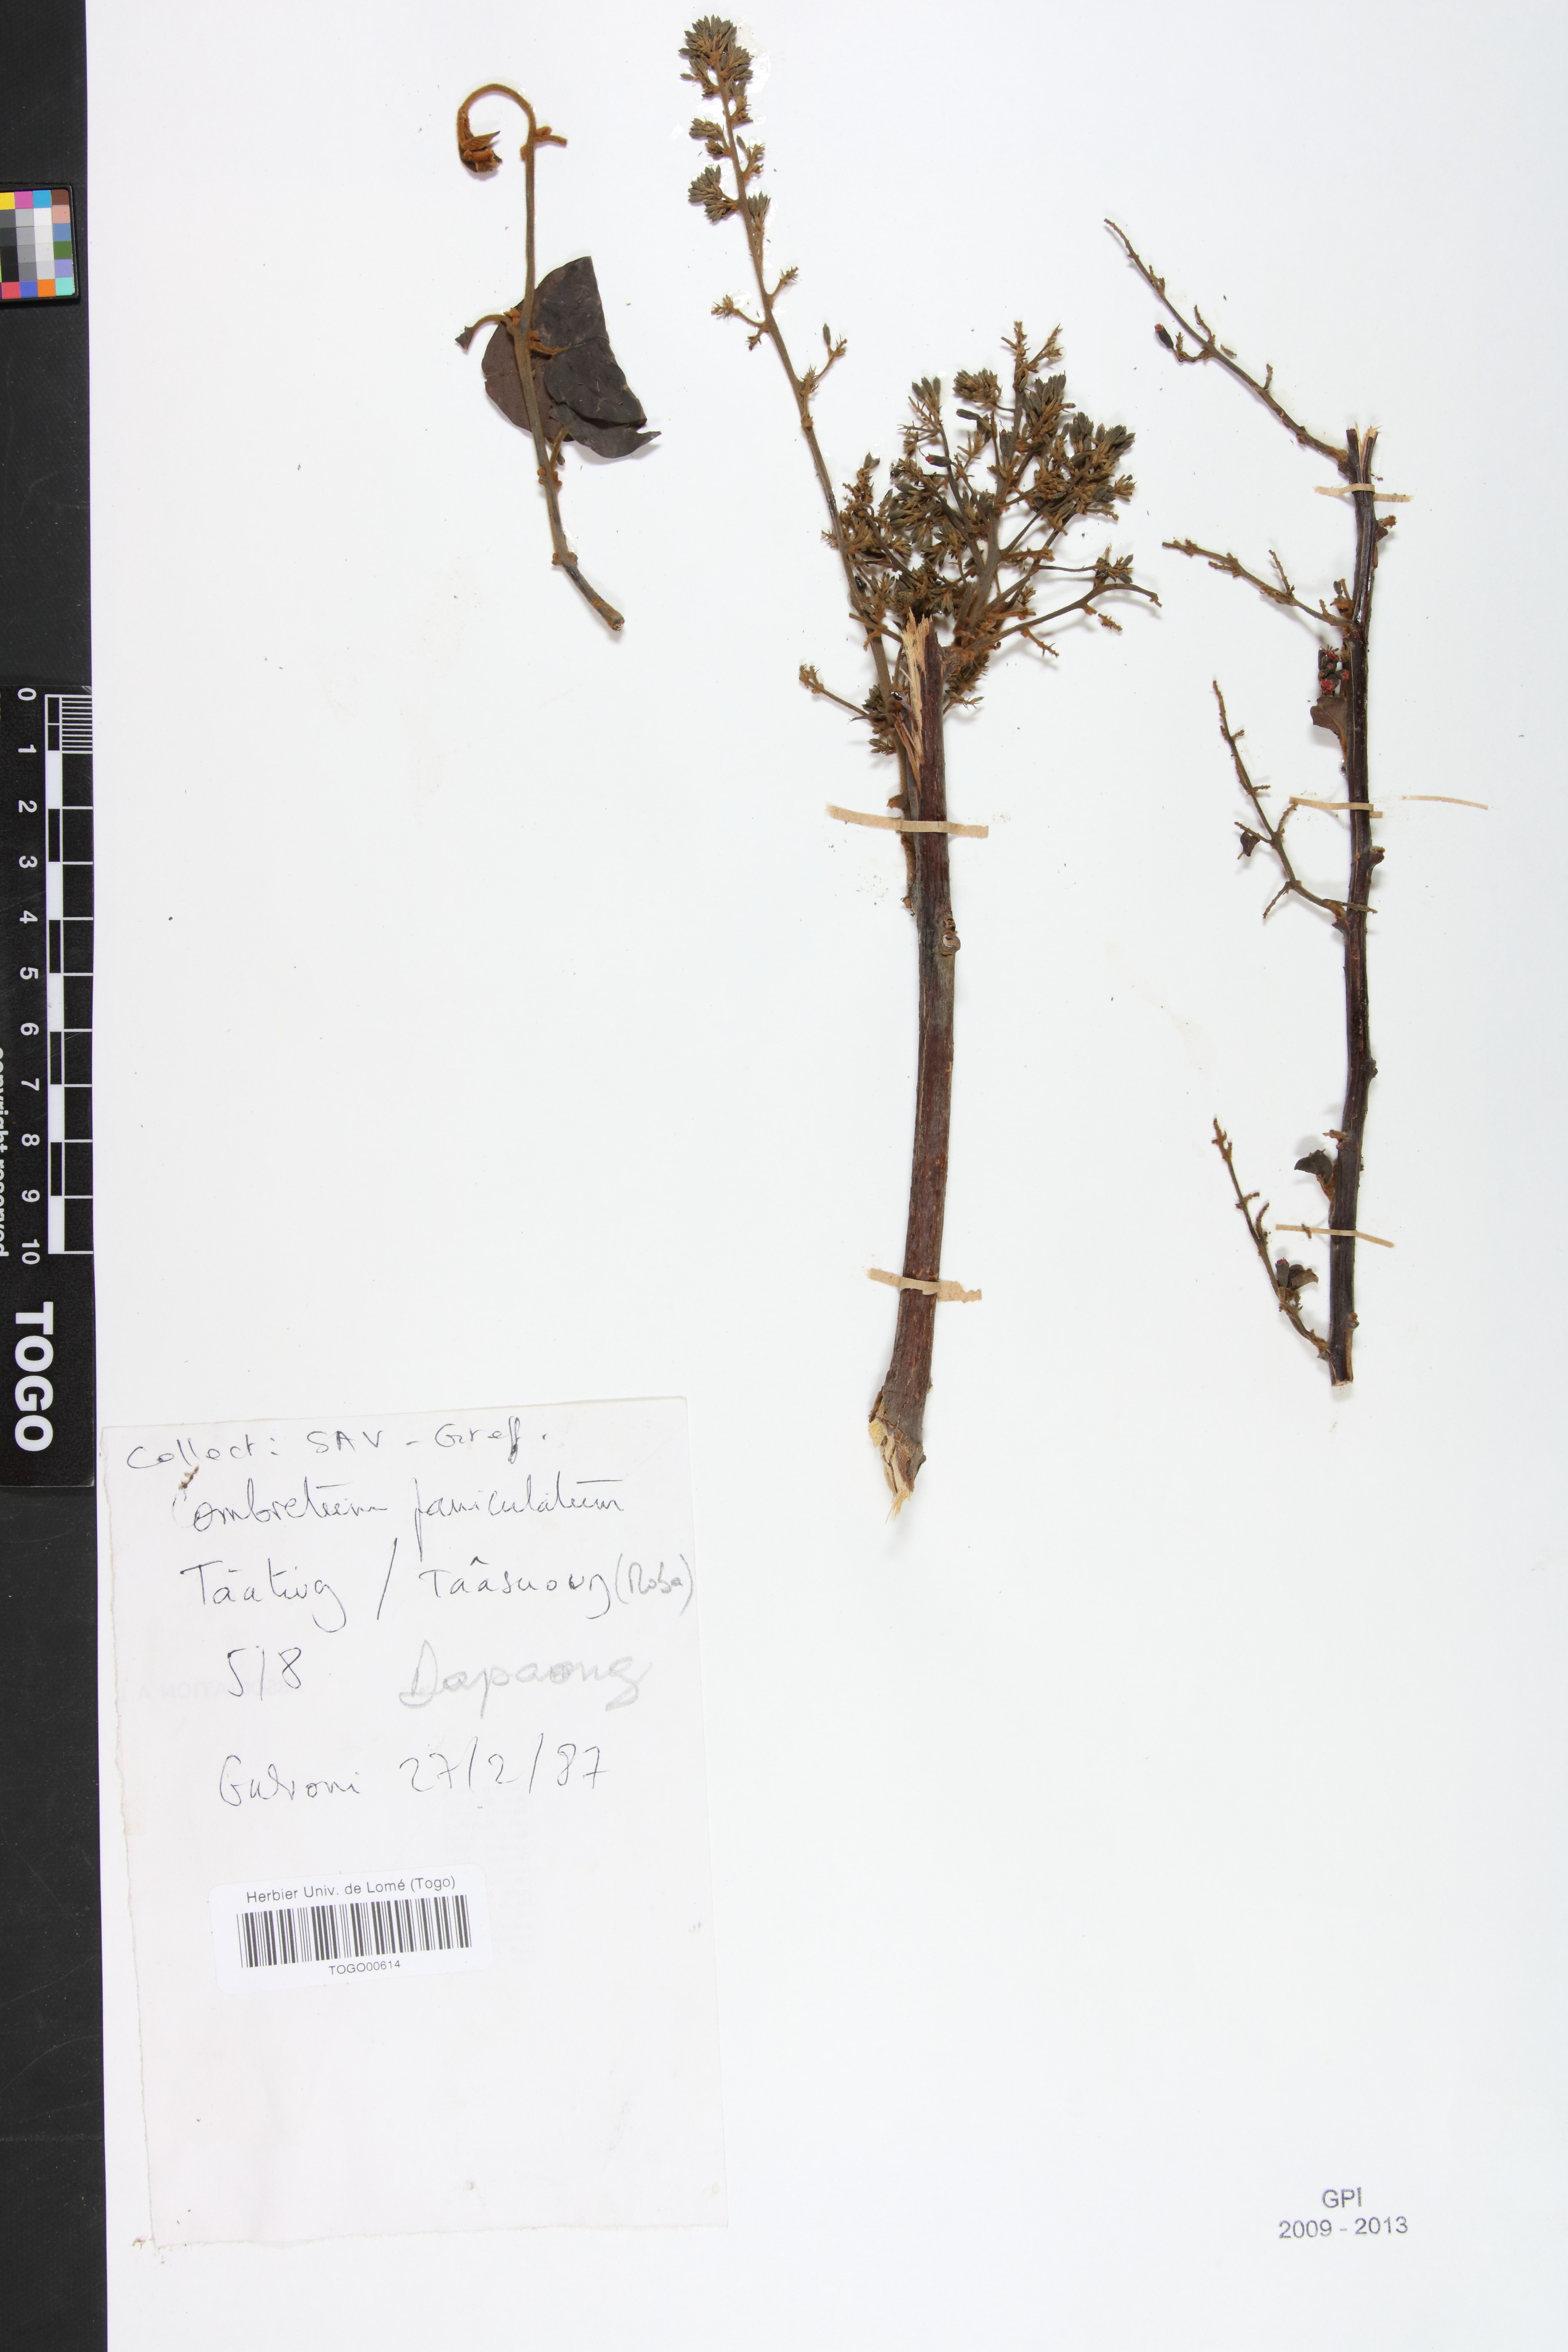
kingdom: Plantae
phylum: Tracheophyta
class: Magnoliopsida
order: Myrtales
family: Combretaceae
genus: Combretum
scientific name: Combretum paniculatum
